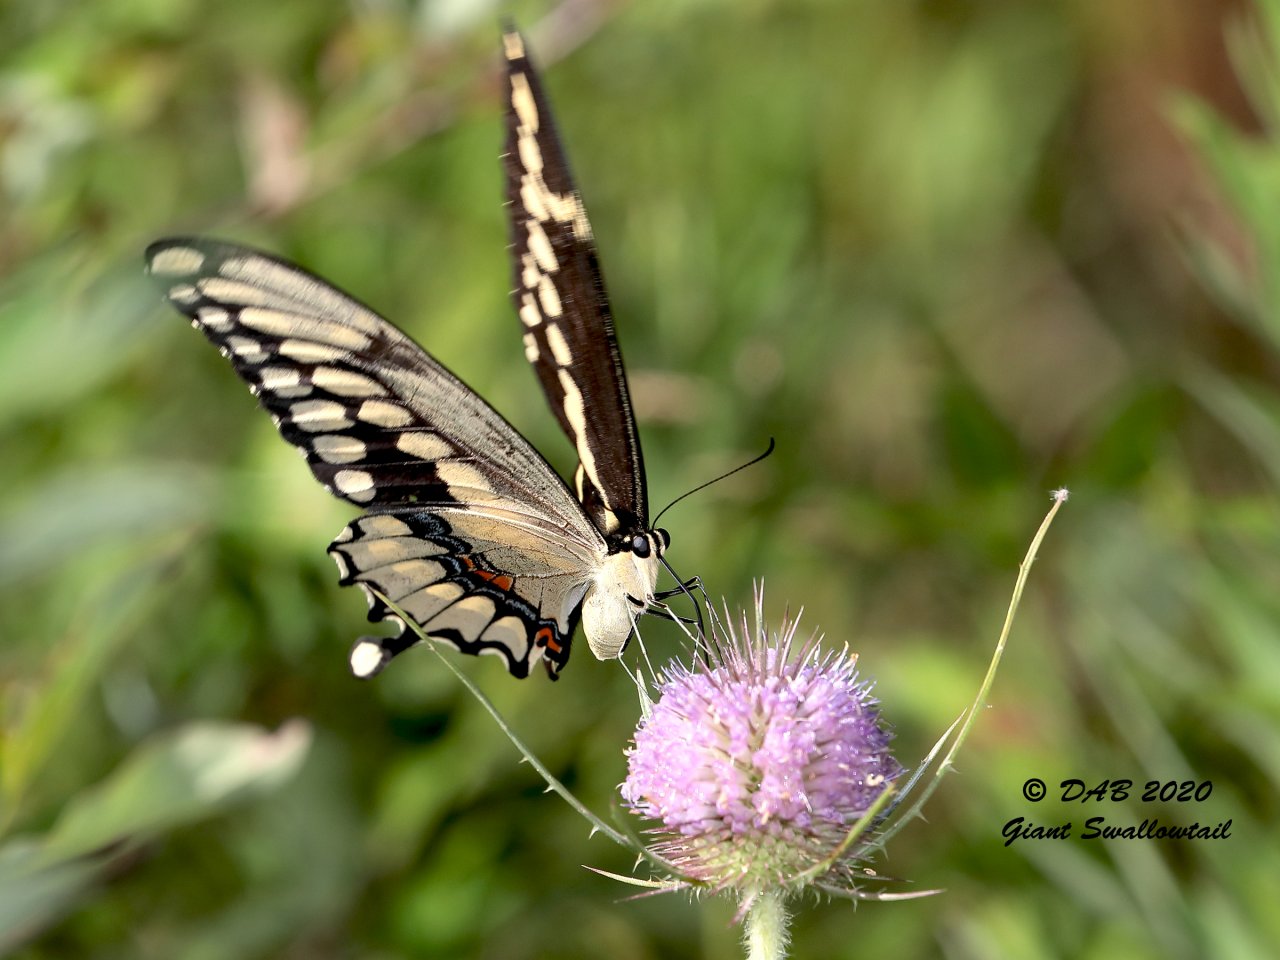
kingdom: Animalia
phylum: Arthropoda
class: Insecta
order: Lepidoptera
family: Papilionidae
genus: Papilio
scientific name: Papilio cresphontes
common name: Eastern Giant Swallowtail
